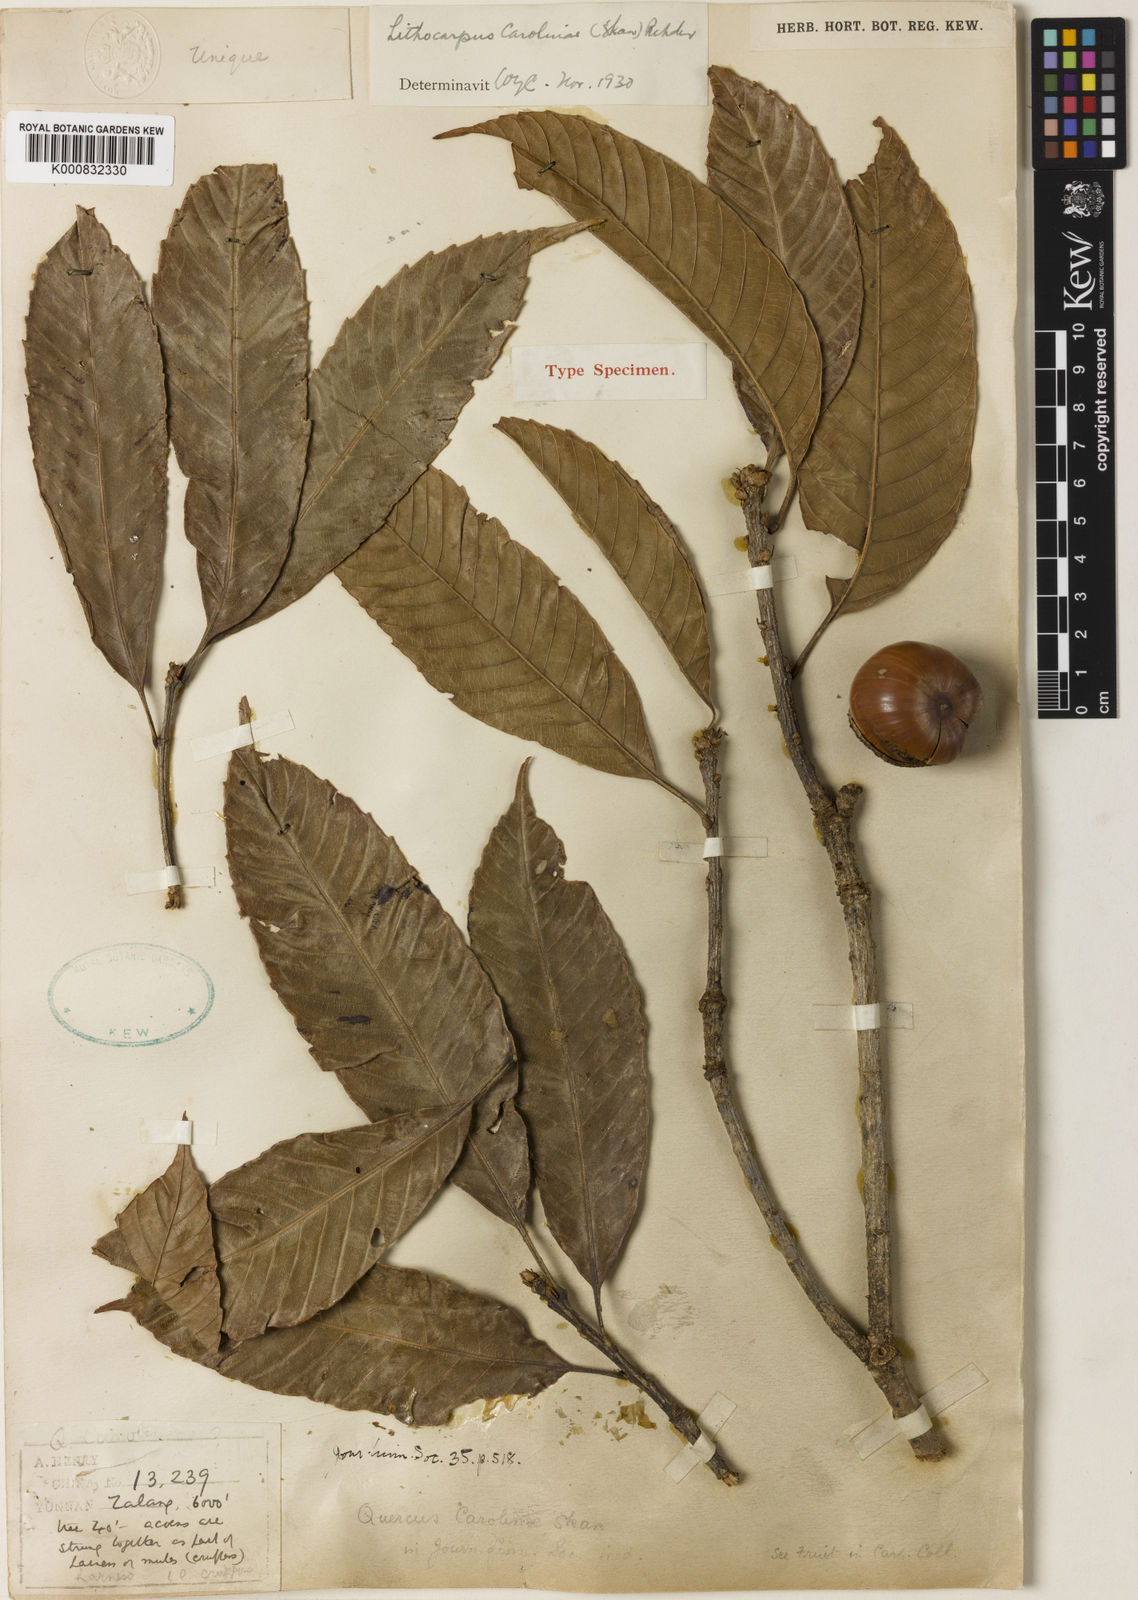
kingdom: Plantae
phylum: Tracheophyta
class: Magnoliopsida
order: Fagales
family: Fagaceae
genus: Lithocarpus
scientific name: Lithocarpus carolinae
